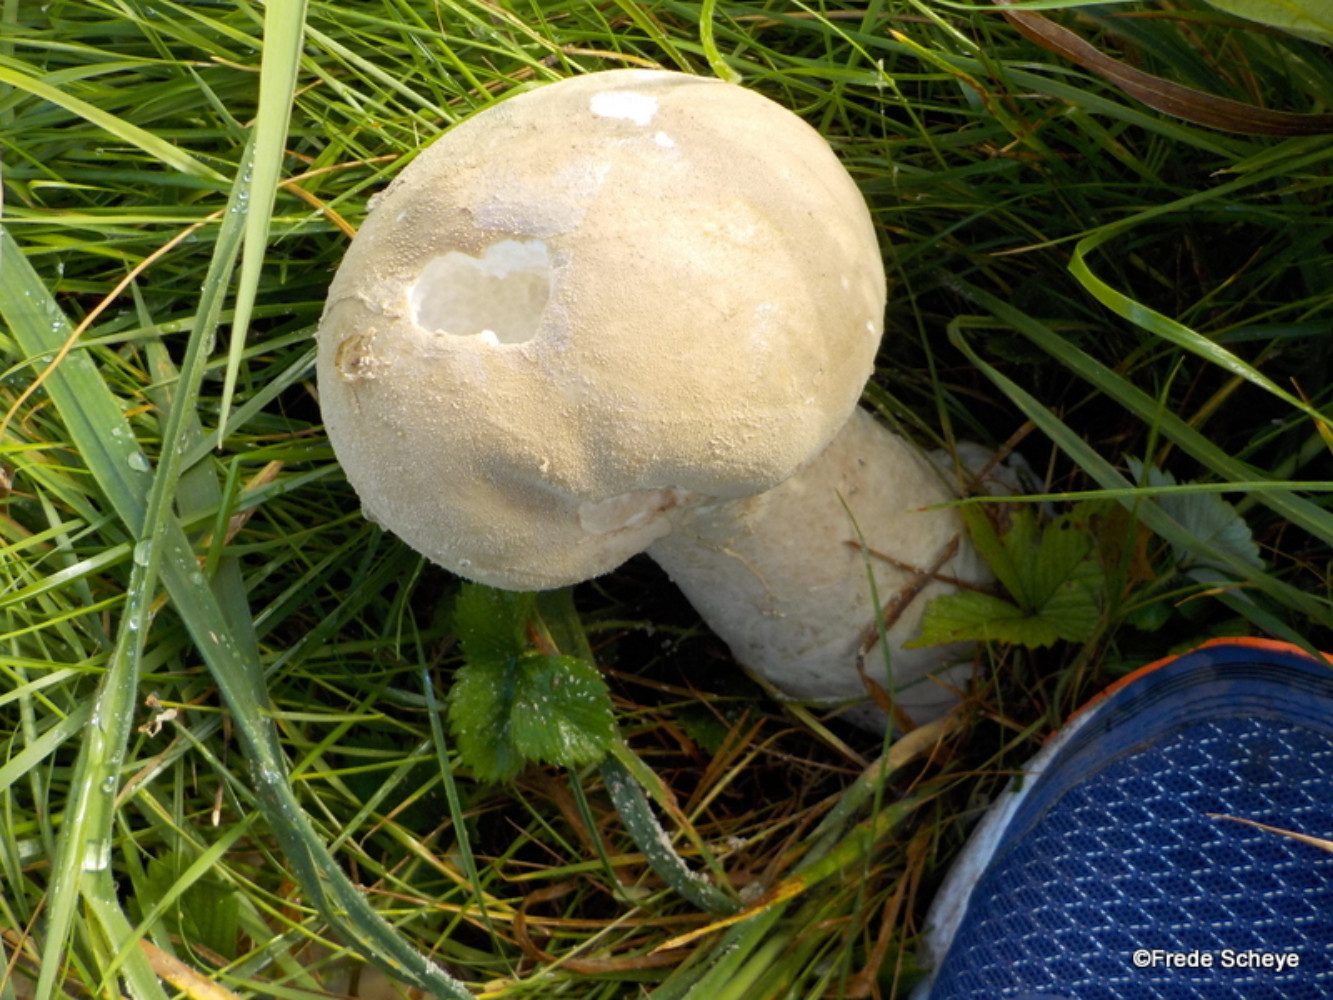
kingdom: Fungi
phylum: Basidiomycota
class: Agaricomycetes
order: Agaricales
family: Lycoperdaceae
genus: Lycoperdon
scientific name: Lycoperdon excipuliforme
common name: højstokket støvbold
